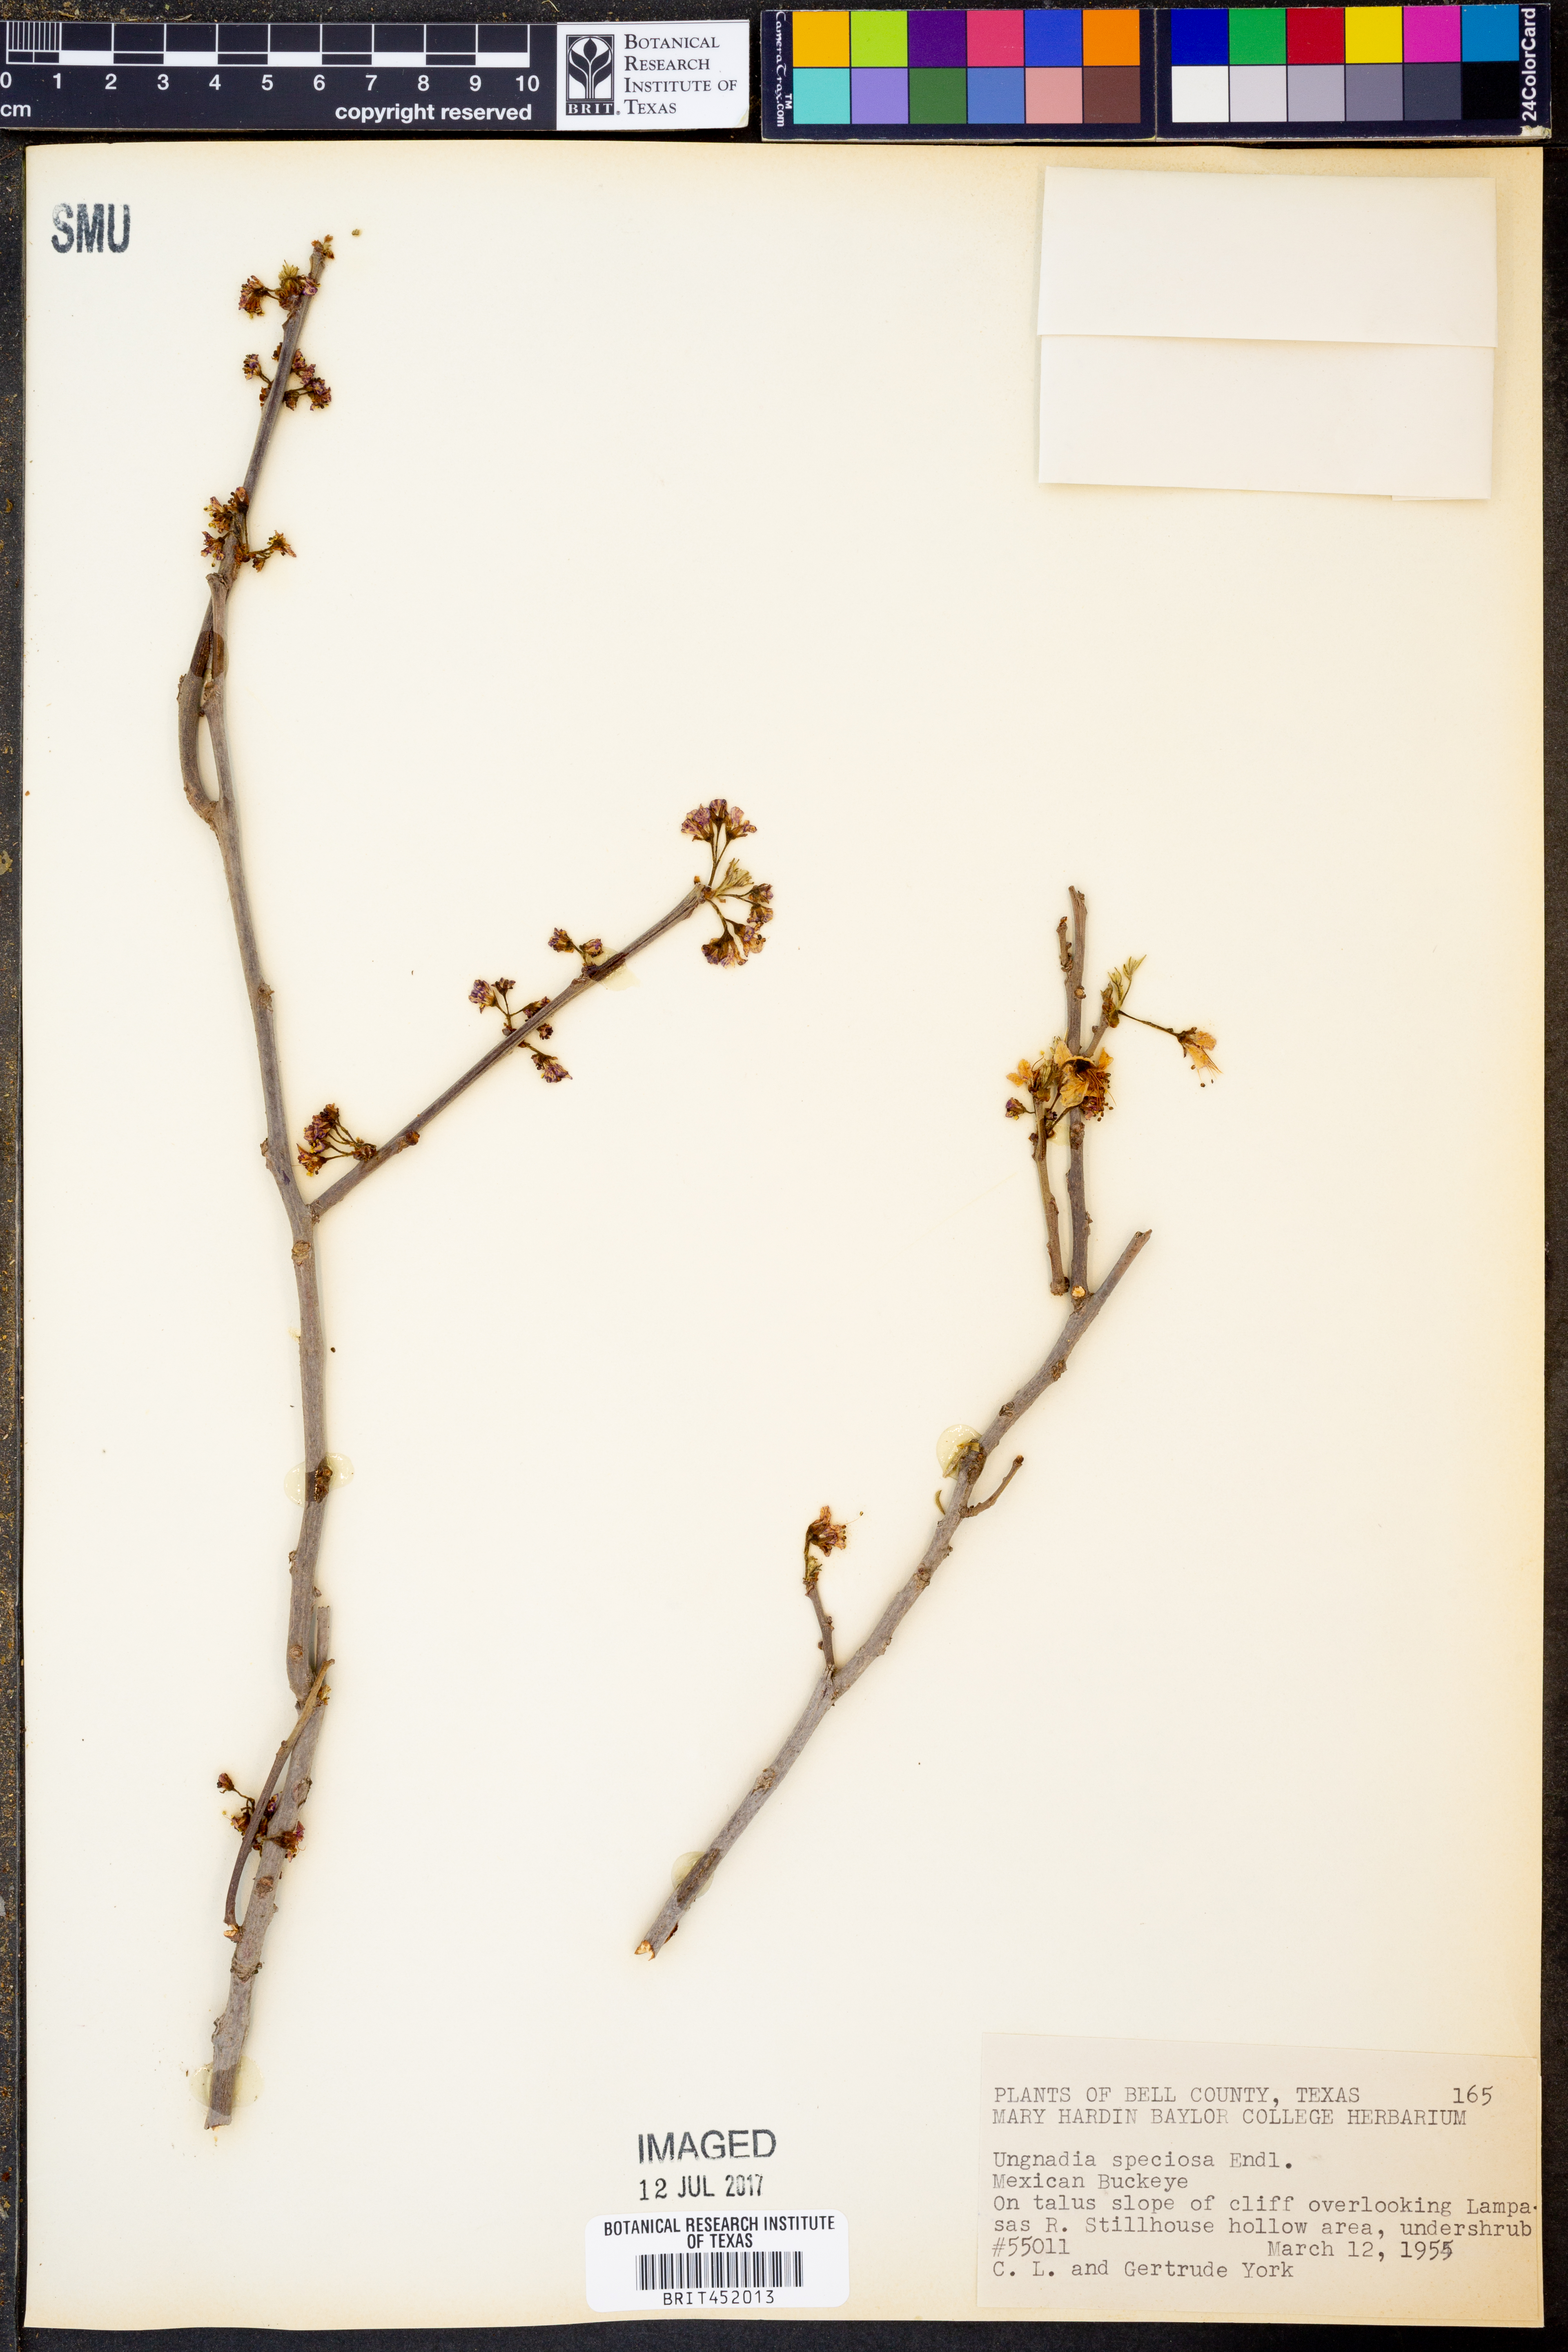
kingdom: Plantae
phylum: Tracheophyta
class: Magnoliopsida
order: Sapindales
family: Sapindaceae
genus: Ungnadia
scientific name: Ungnadia speciosa
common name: Texas-buckeye
